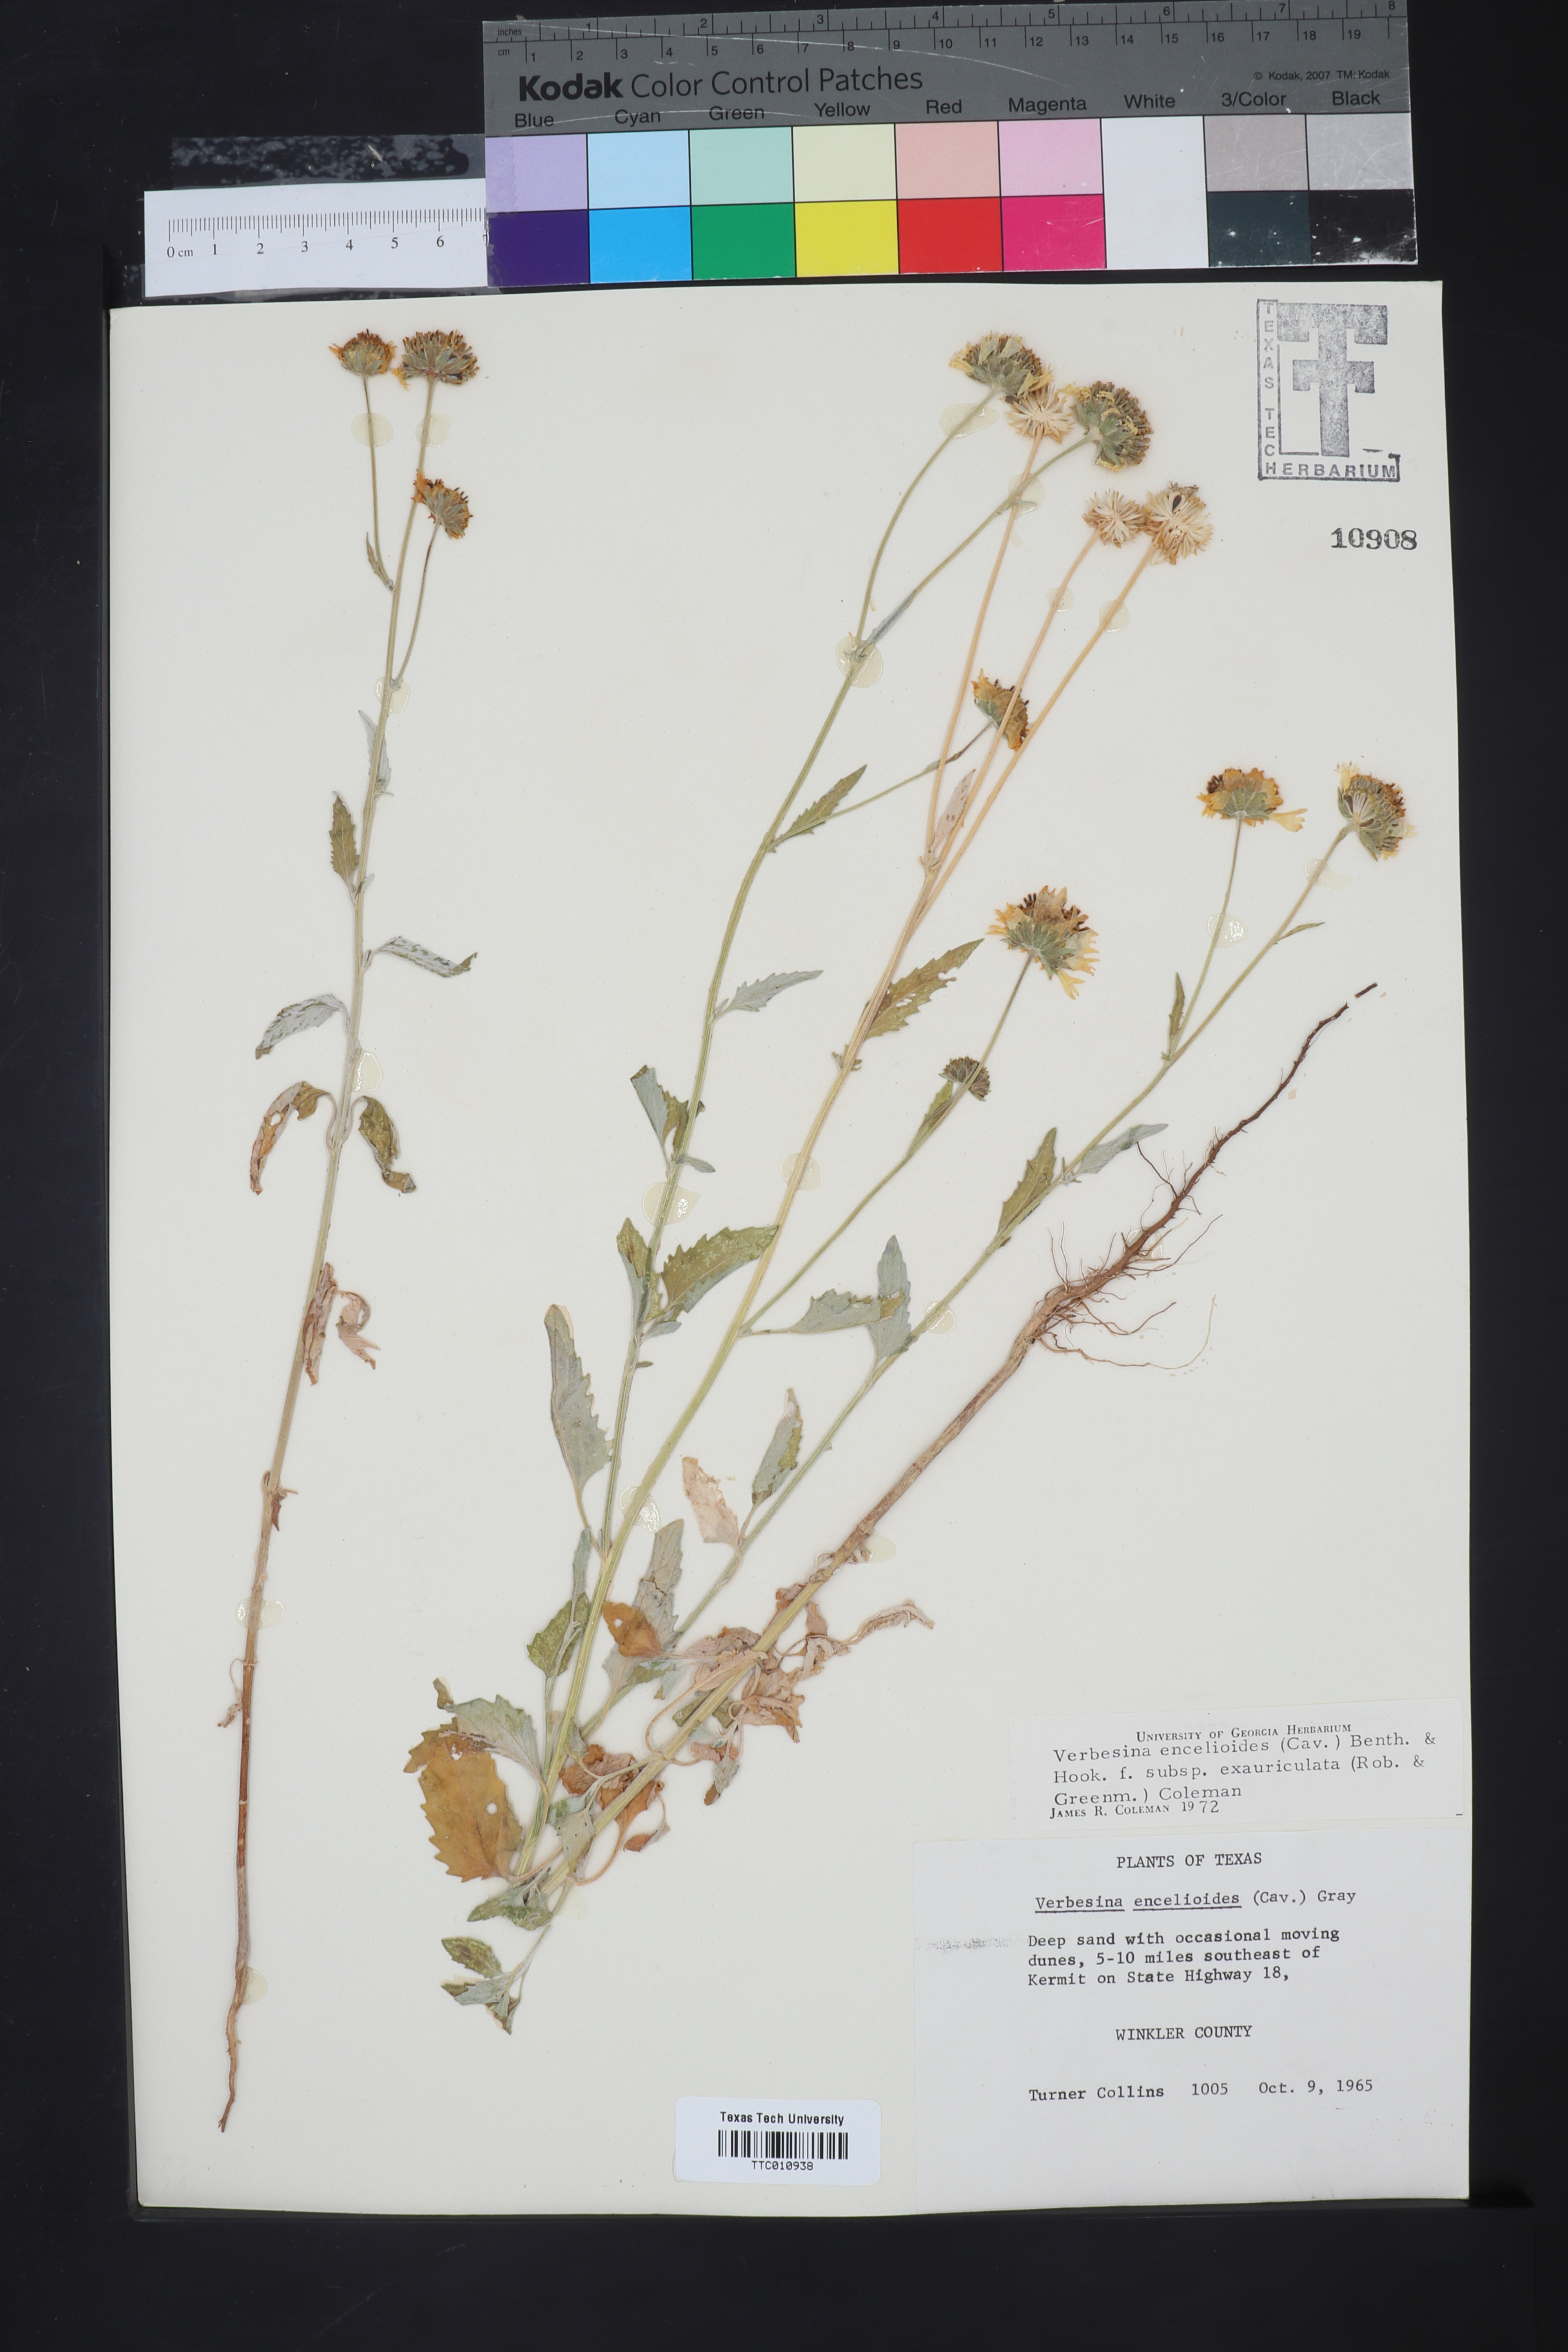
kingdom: Plantae
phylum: Tracheophyta
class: Magnoliopsida
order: Asterales
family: Asteraceae
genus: Verbesina
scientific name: Verbesina encelioides
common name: Golden crownbeard
